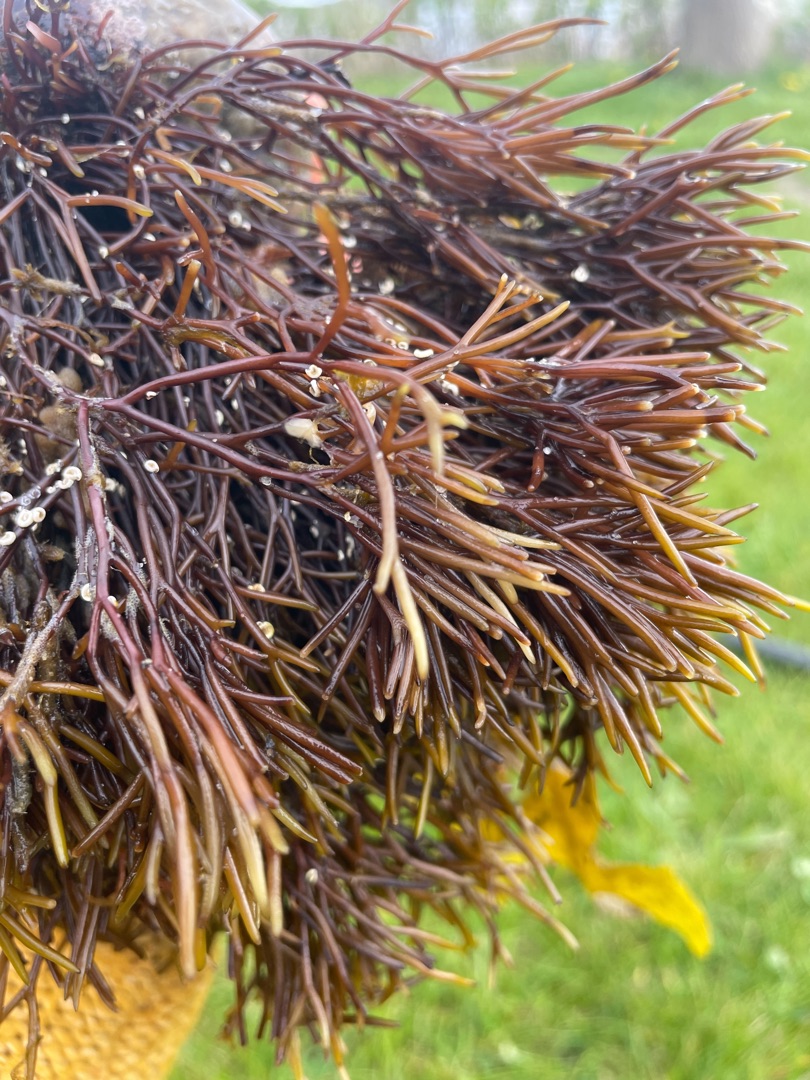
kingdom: Plantae
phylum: Rhodophyta
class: Florideophyceae
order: Gigartinales
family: Furcellariaceae
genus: Furcellaria
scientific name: Furcellaria lumbricalis
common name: Gaffeltang
